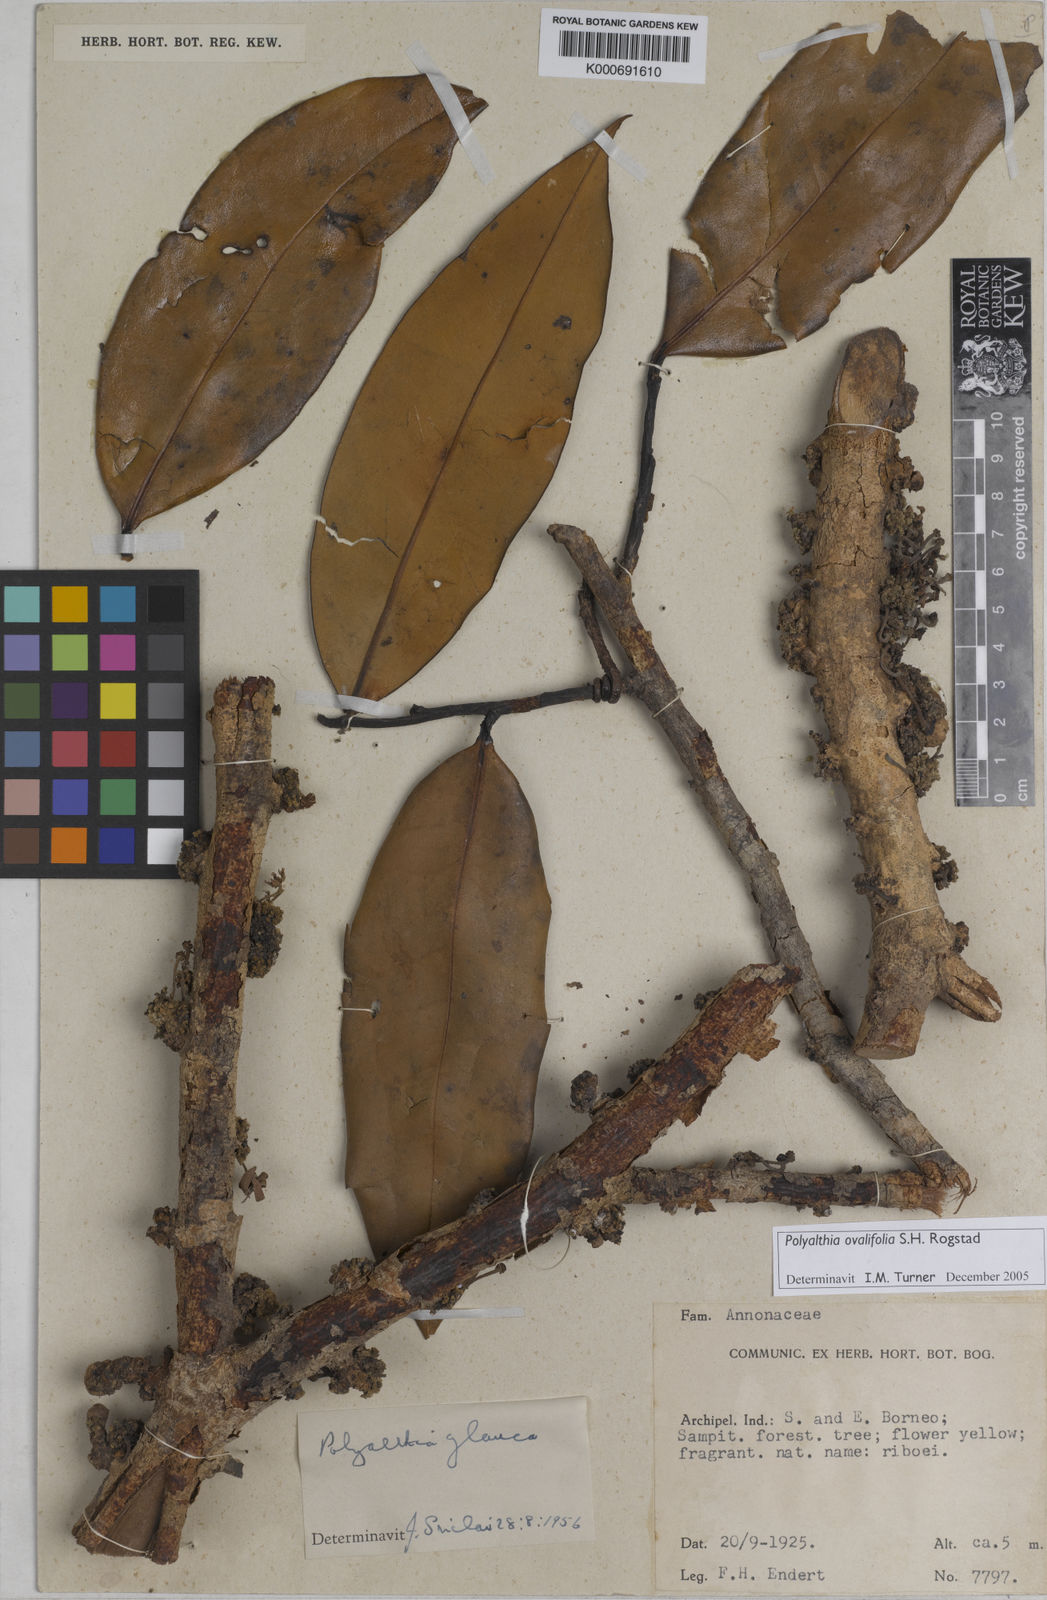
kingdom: Plantae
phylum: Tracheophyta
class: Magnoliopsida
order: Magnoliales
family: Annonaceae
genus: Maasia
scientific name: Maasia ovalifolia
